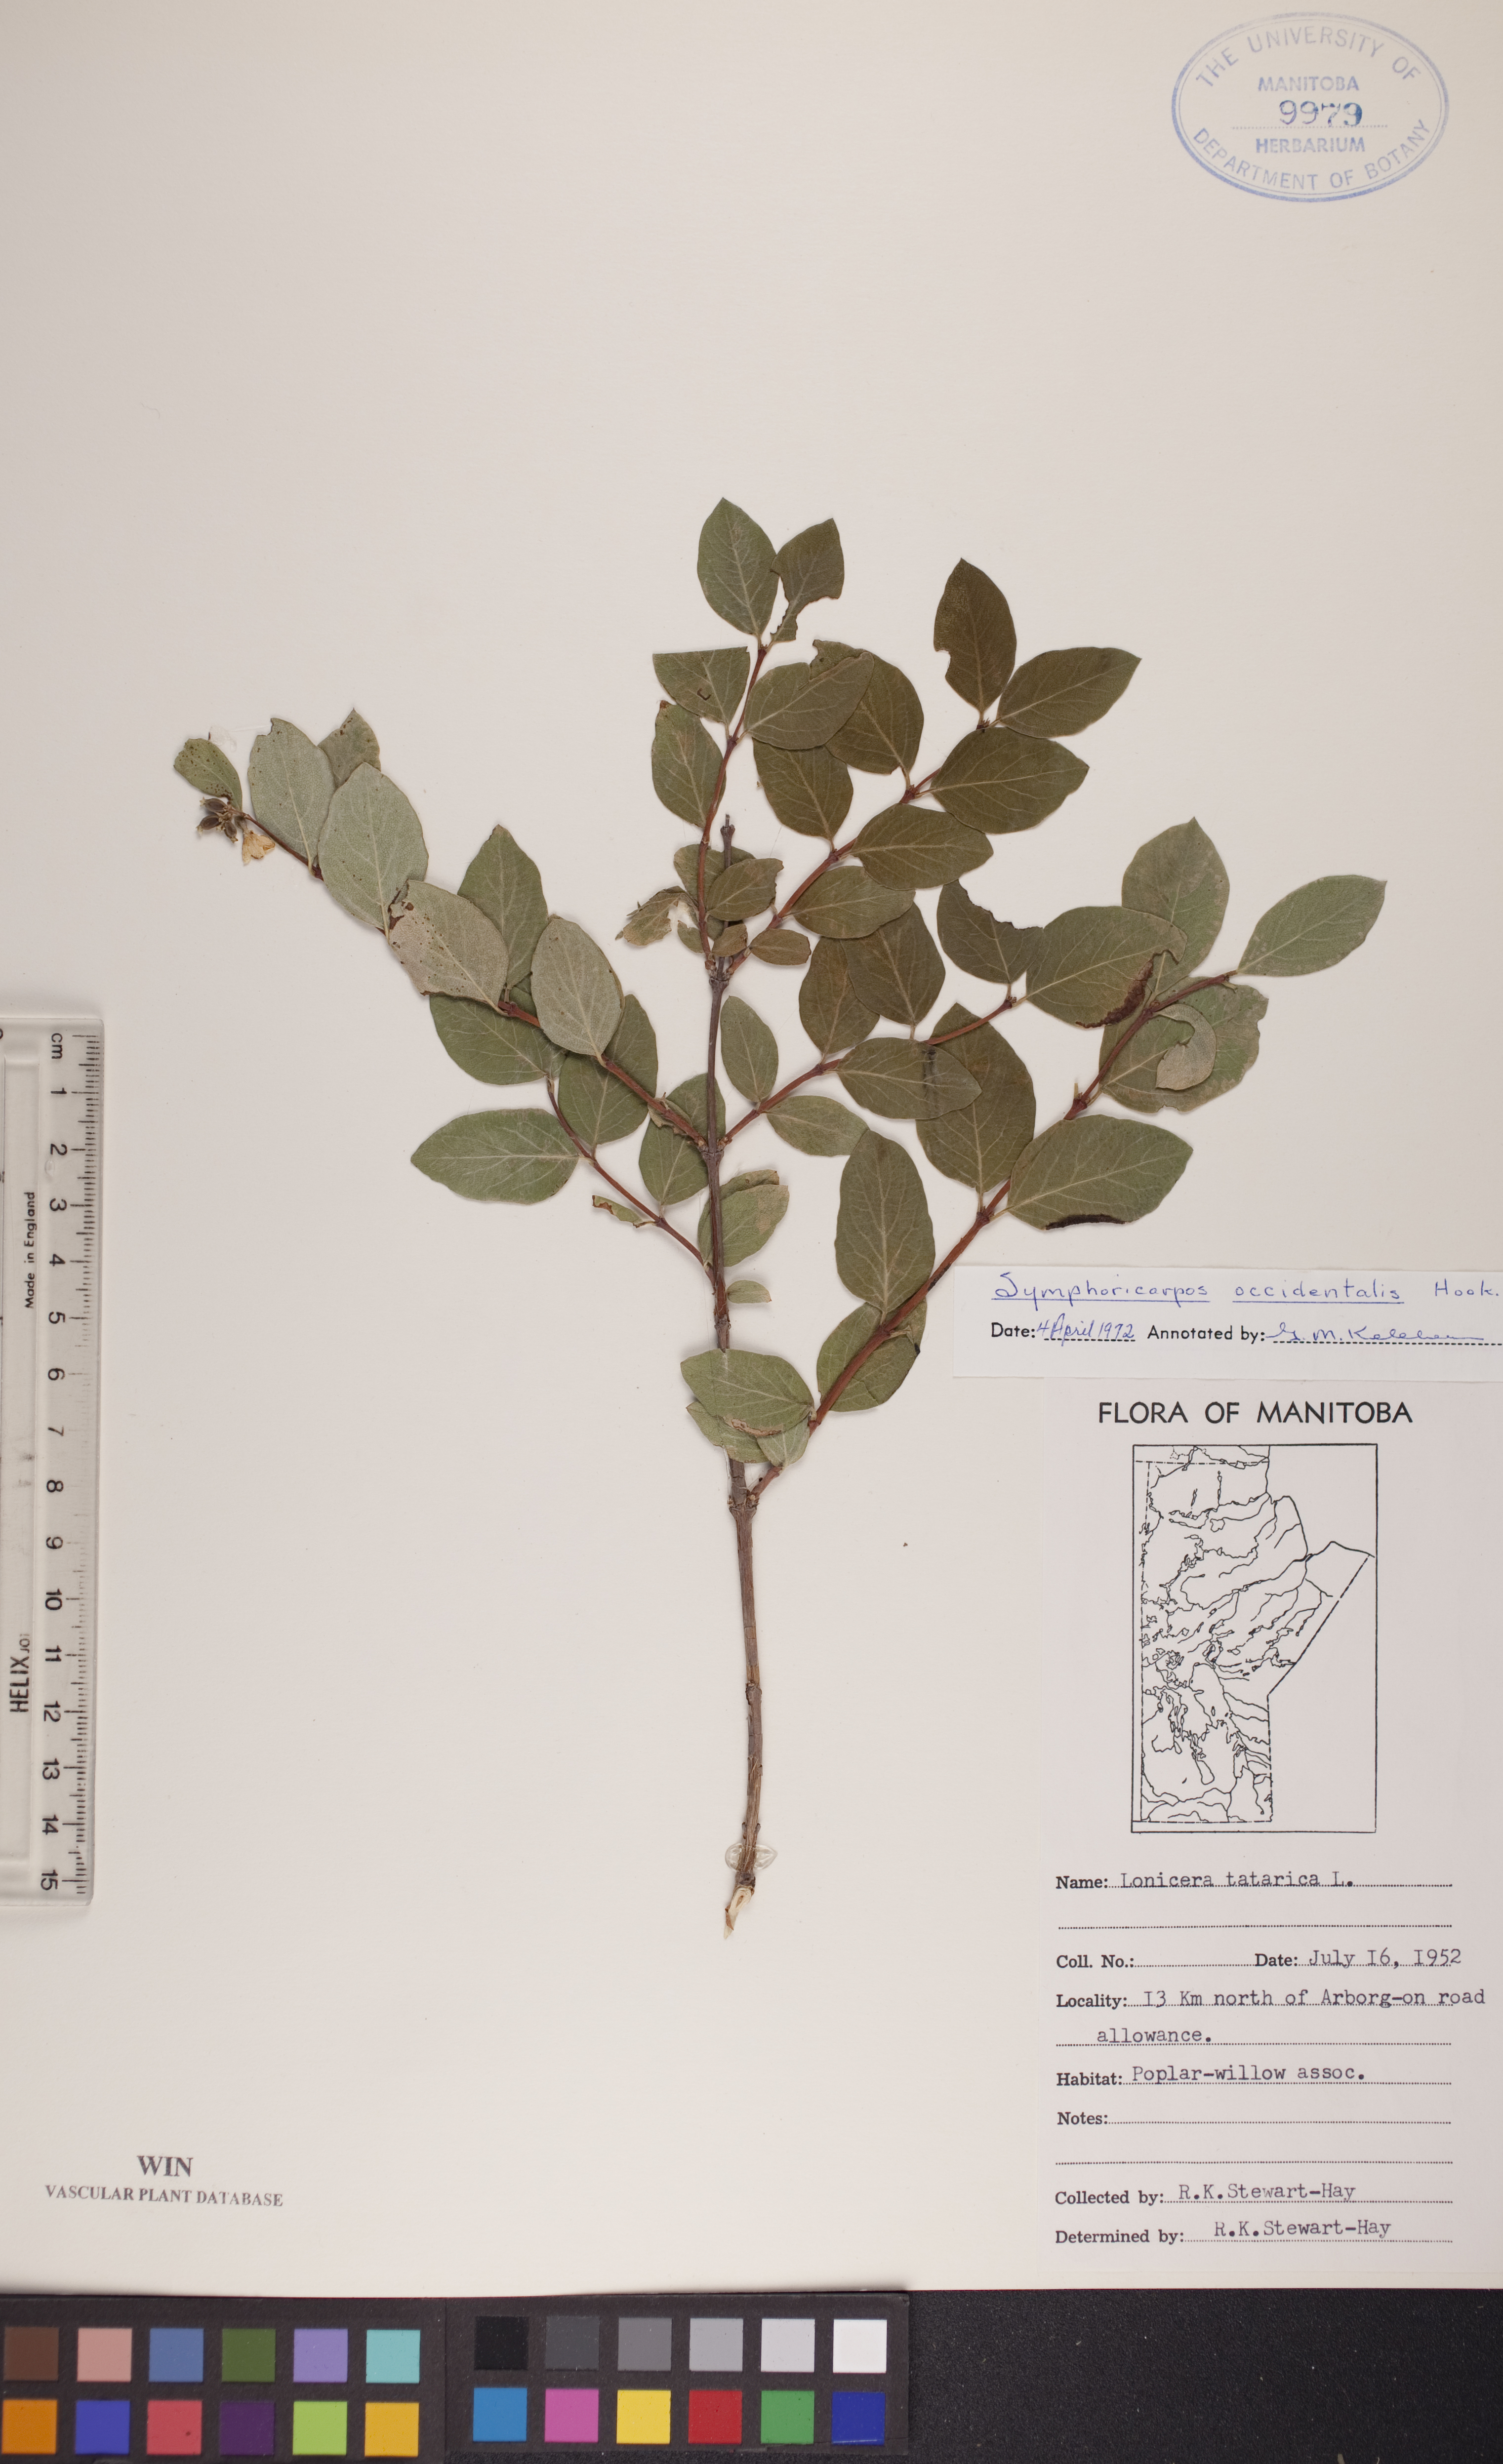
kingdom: Plantae
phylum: Tracheophyta
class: Magnoliopsida
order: Dipsacales
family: Caprifoliaceae
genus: Symphoricarpos
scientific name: Symphoricarpos occidentalis
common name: Wolfberry
